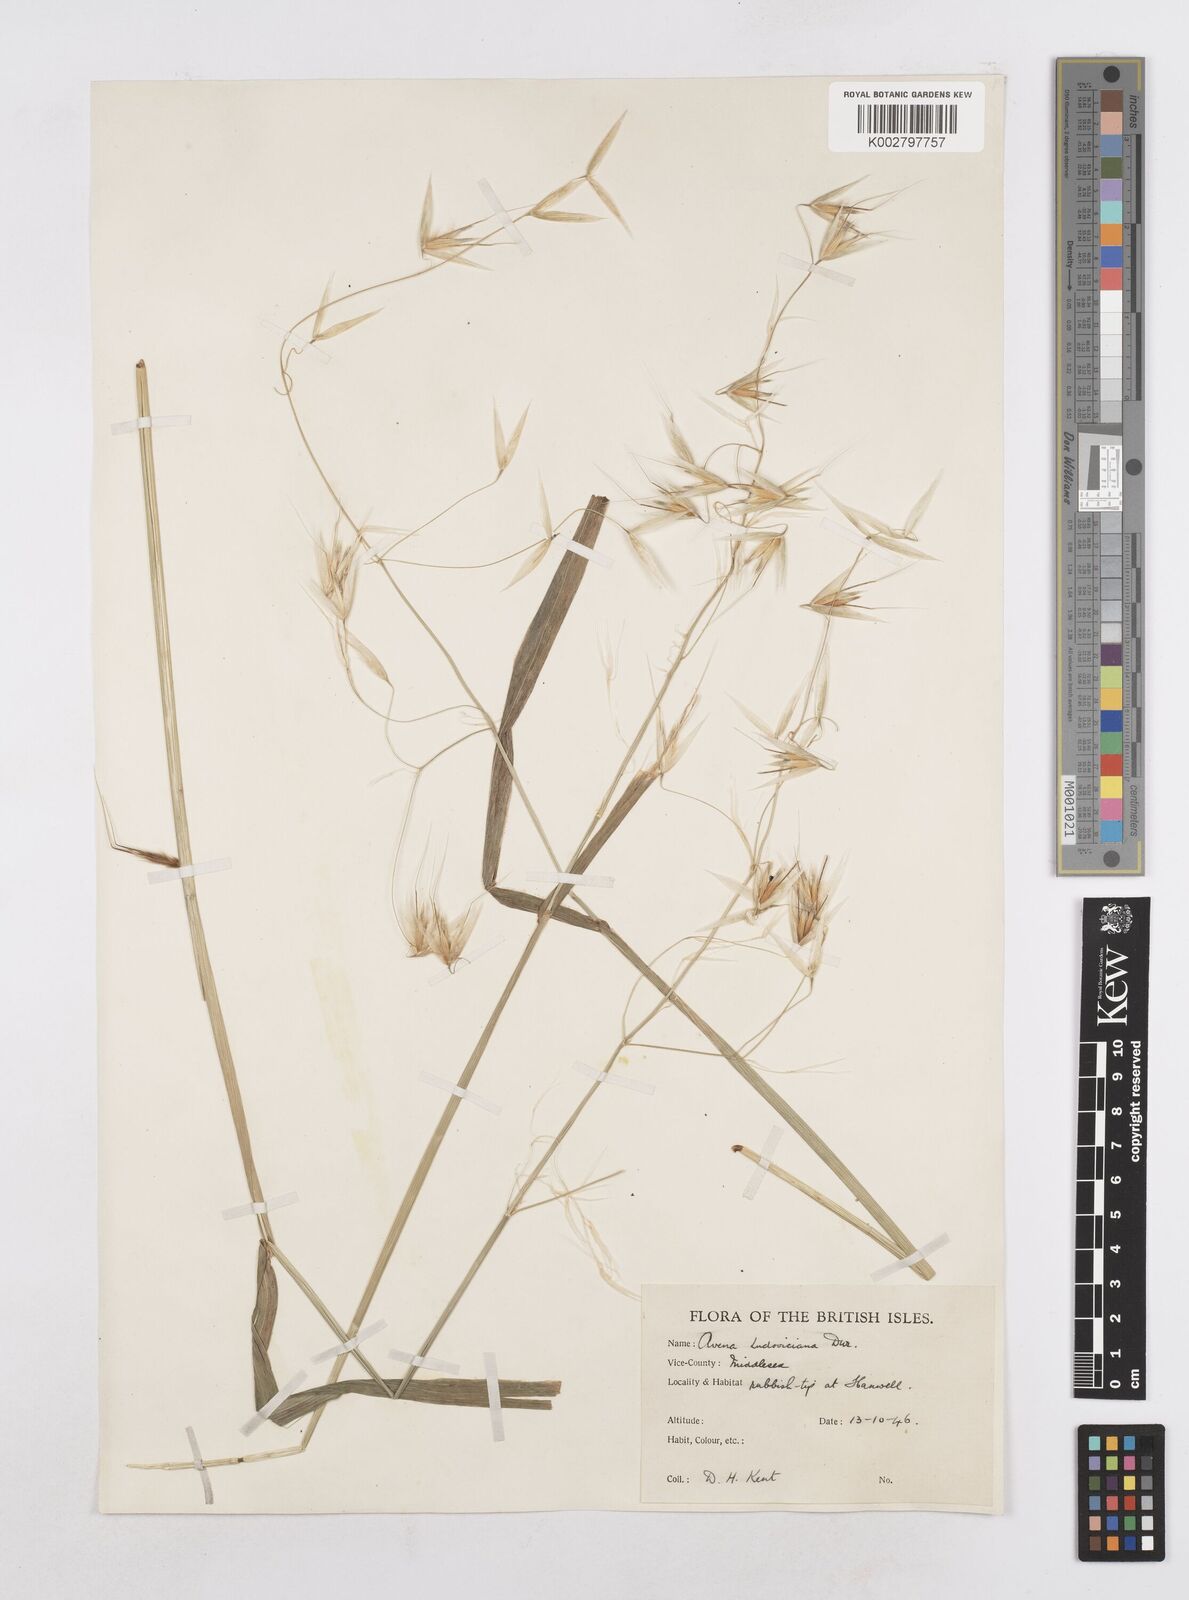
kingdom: Plantae
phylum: Tracheophyta
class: Liliopsida
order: Poales
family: Poaceae
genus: Avena
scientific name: Avena sterilis
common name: Animated oat
